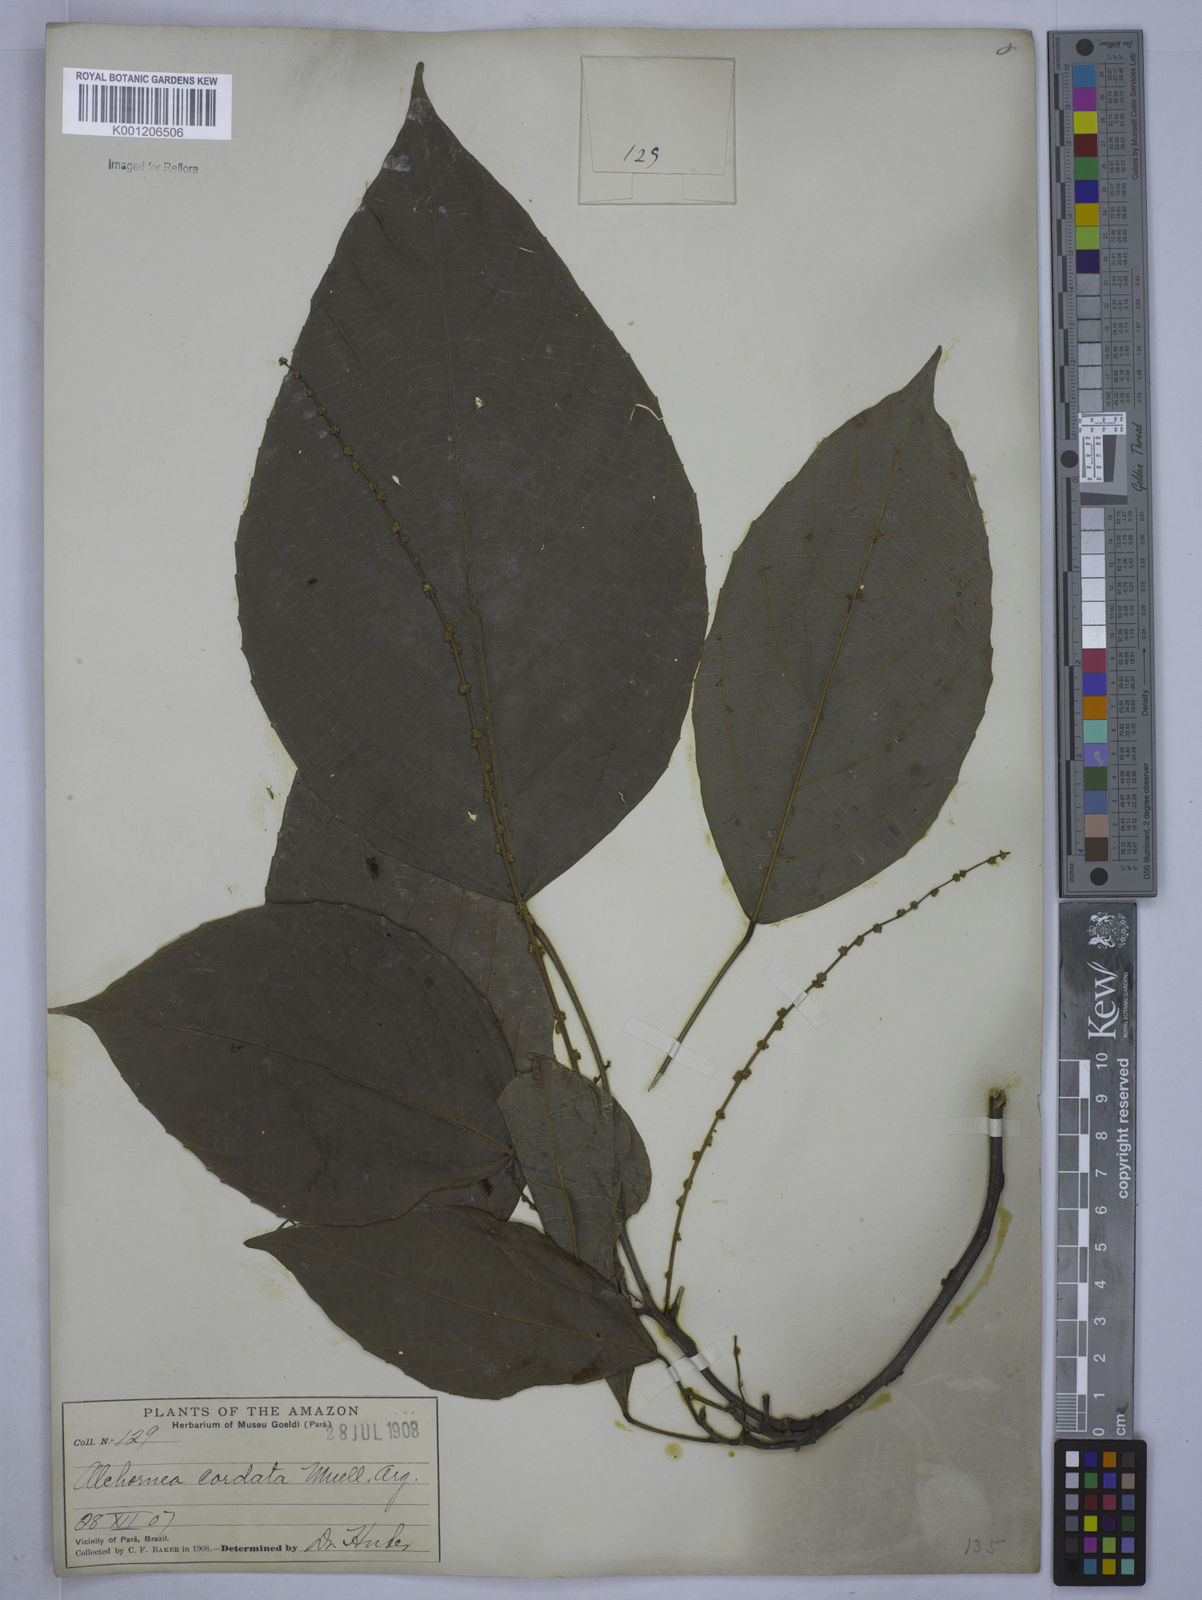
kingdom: Plantae
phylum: Tracheophyta
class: Magnoliopsida
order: Malpighiales
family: Euphorbiaceae
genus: Aparisthmium
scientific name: Aparisthmium cordatum
